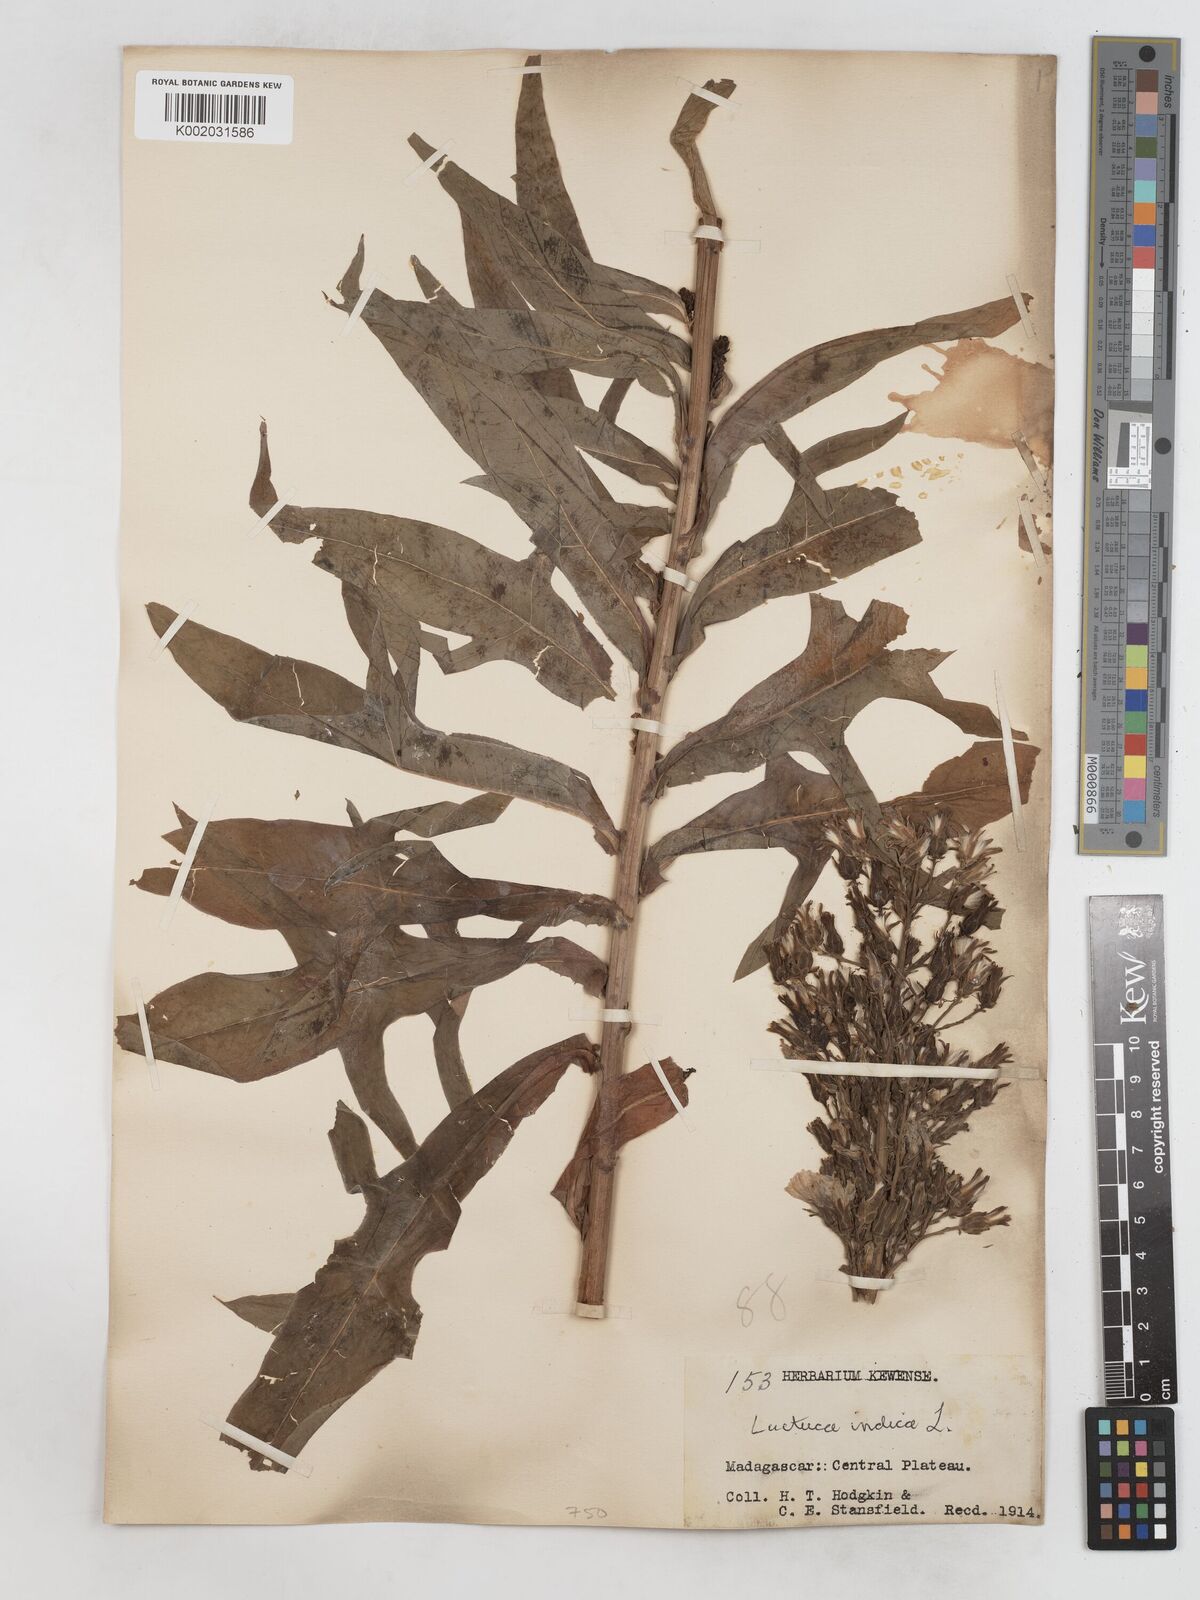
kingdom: Plantae
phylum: Tracheophyta
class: Magnoliopsida
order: Asterales
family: Asteraceae
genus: Lactuca
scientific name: Lactuca
